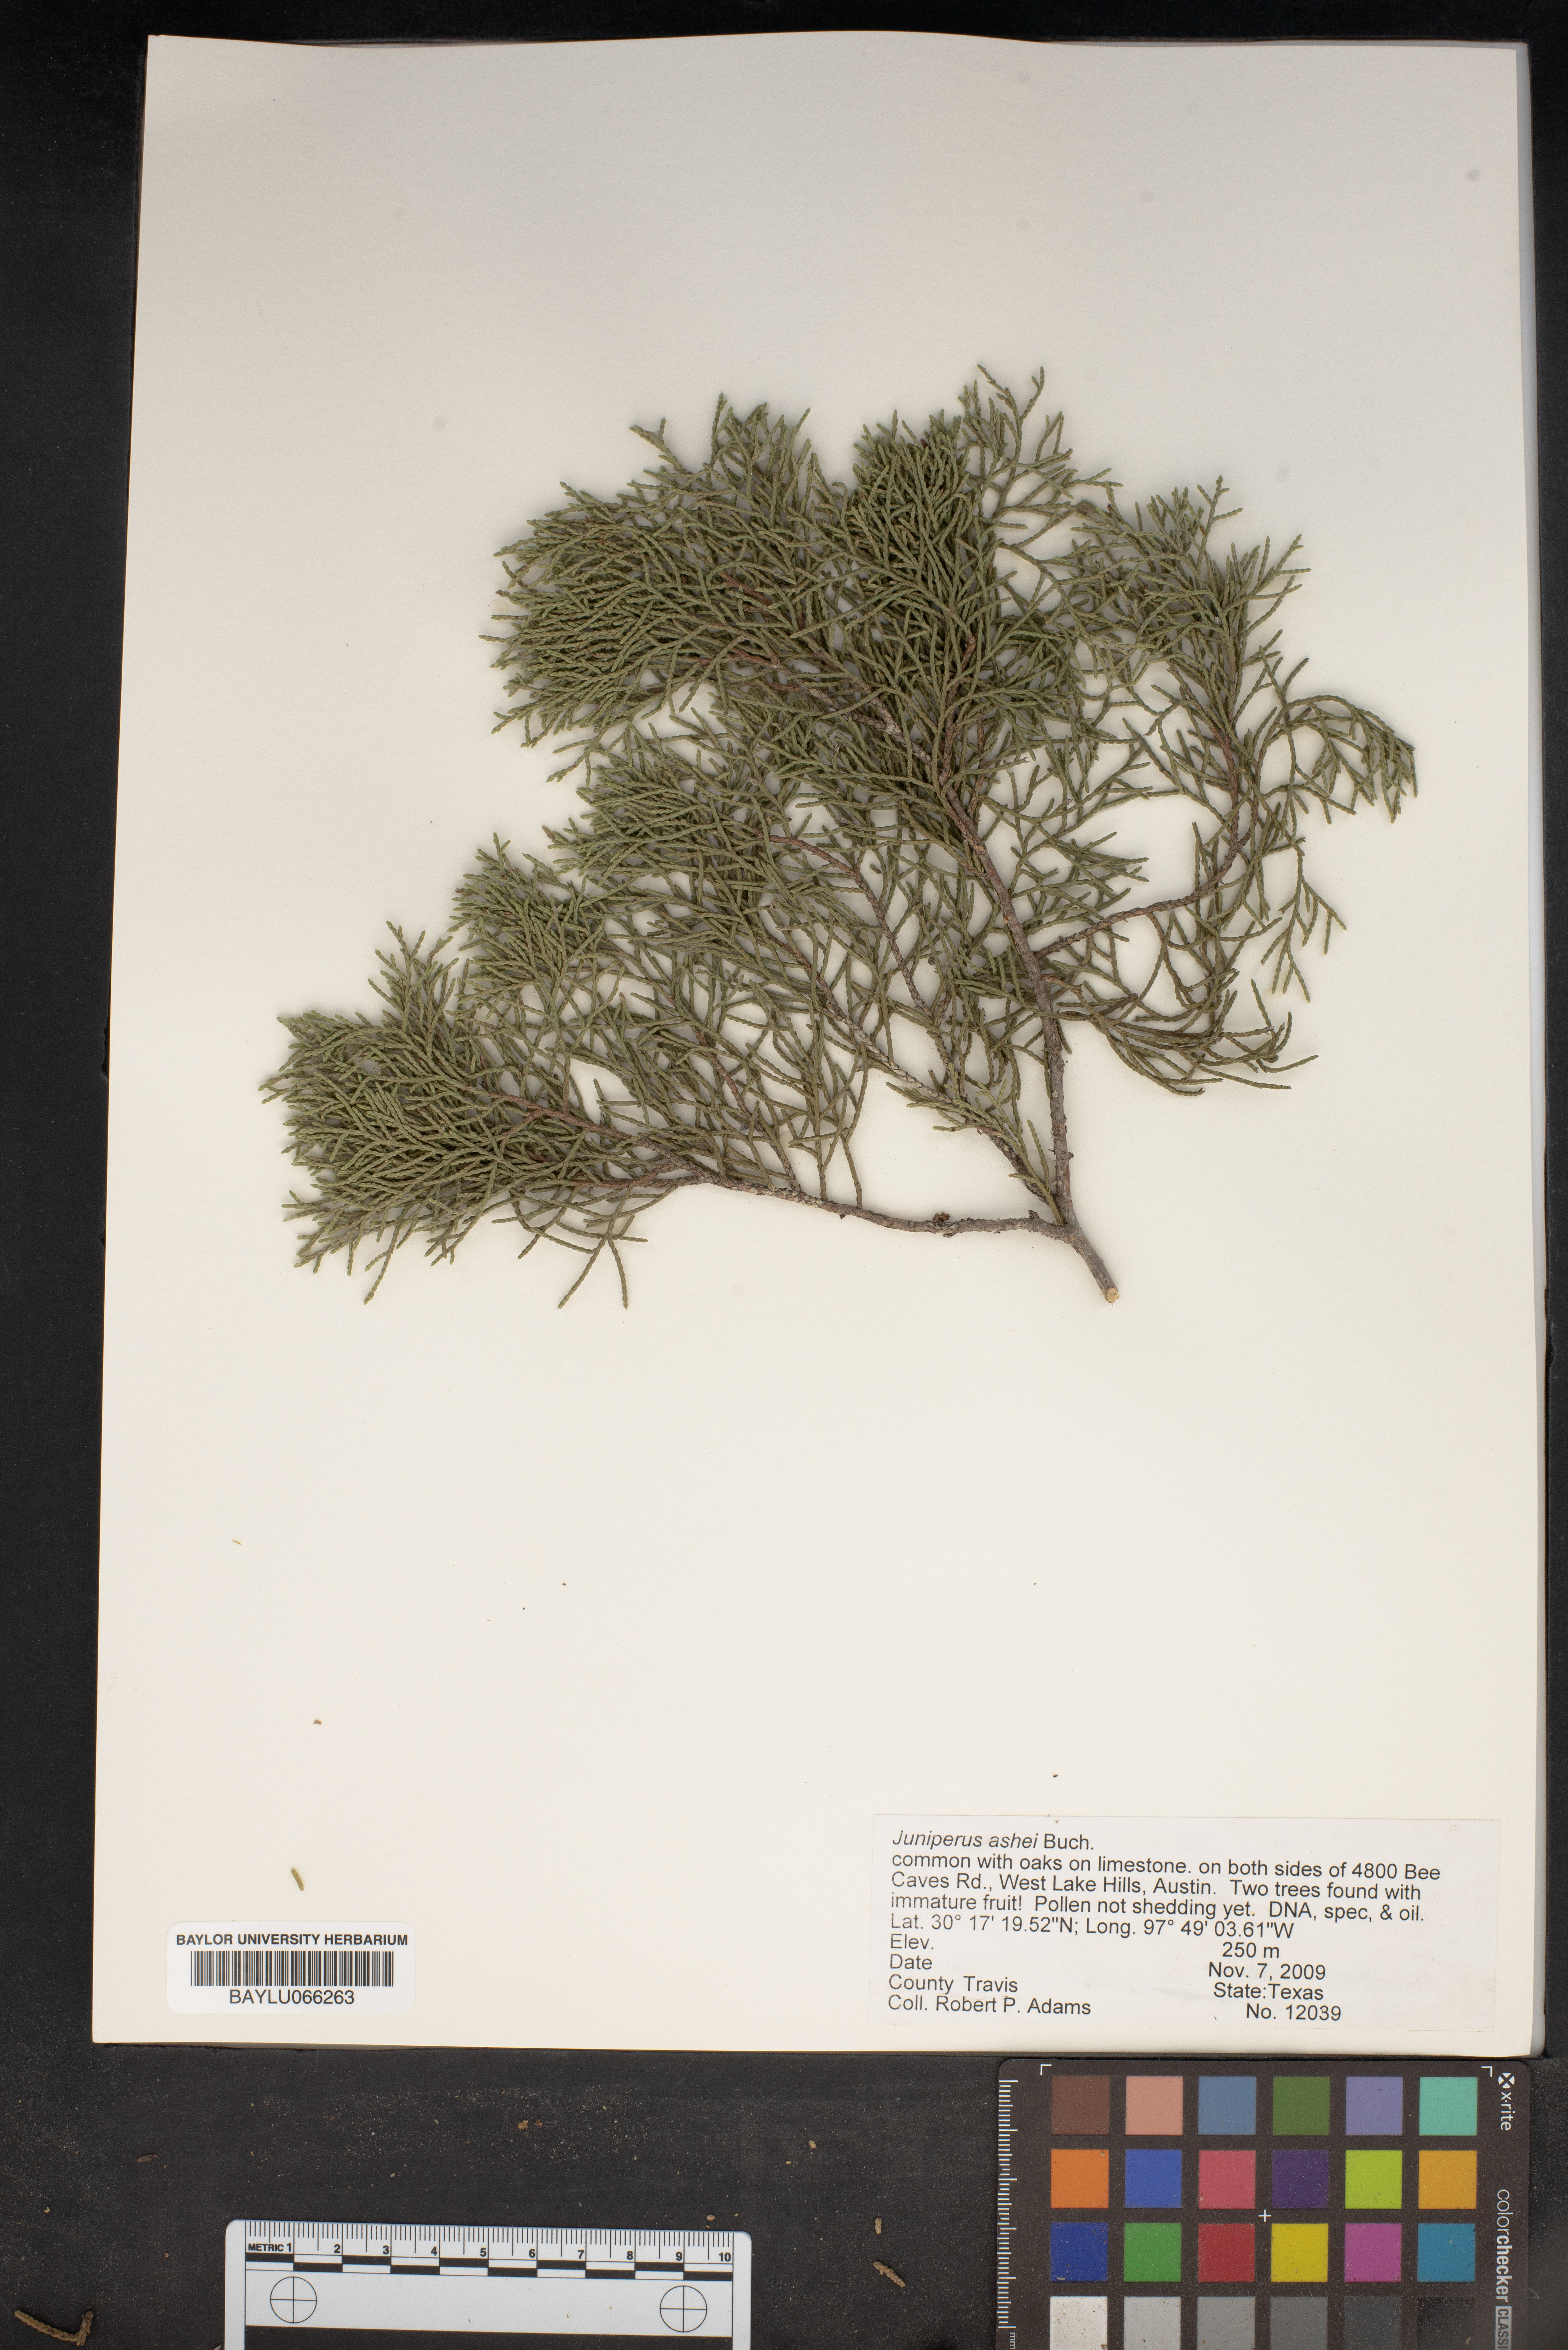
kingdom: Plantae
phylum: Tracheophyta
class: Pinopsida
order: Pinales
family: Cupressaceae
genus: Juniperus
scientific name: Juniperus ashei
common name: Mexican juniper
